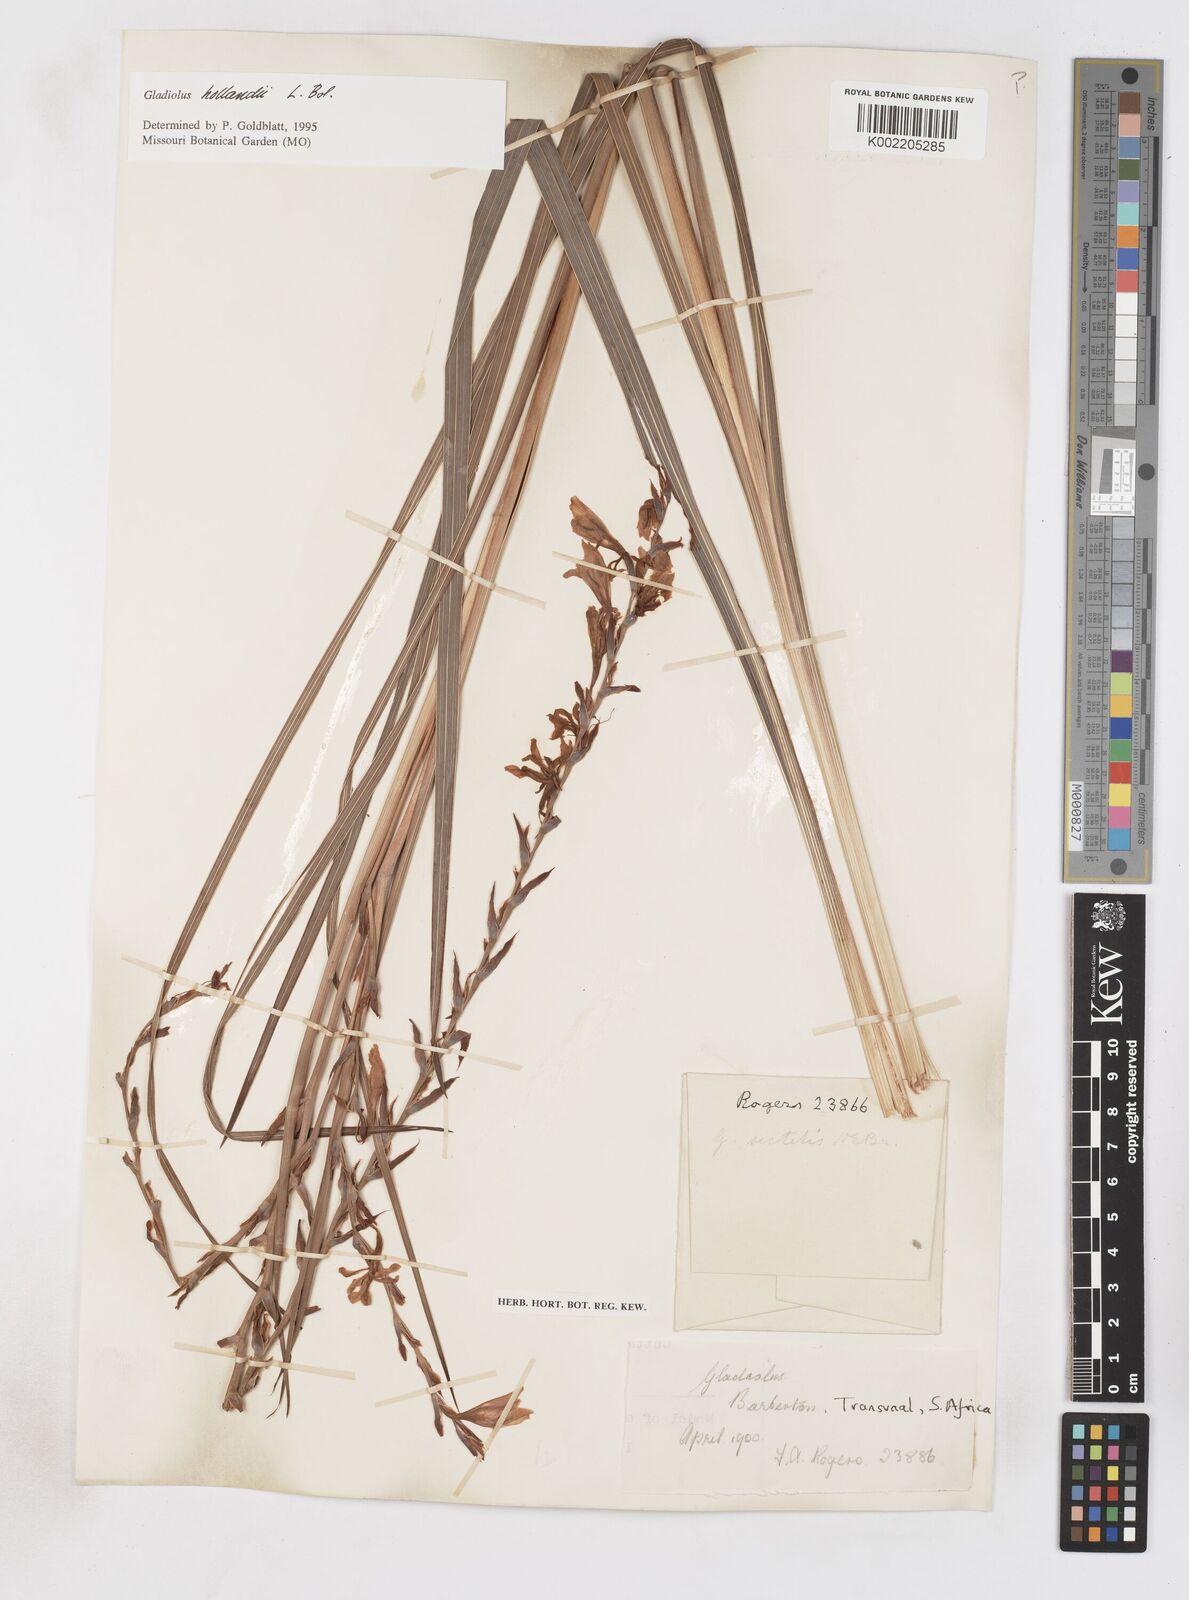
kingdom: Plantae
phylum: Tracheophyta
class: Liliopsida
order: Asparagales
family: Iridaceae
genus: Gladiolus
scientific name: Gladiolus hollandii
